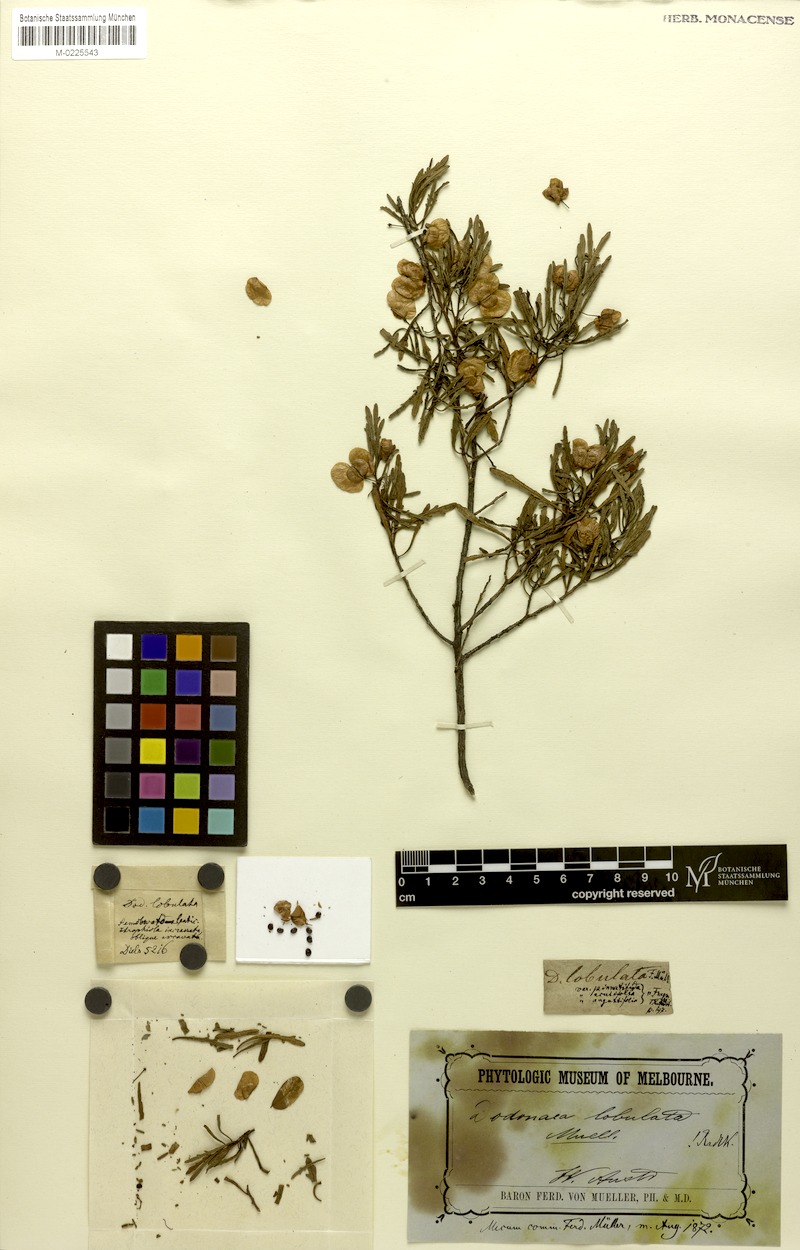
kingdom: Plantae
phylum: Tracheophyta
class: Magnoliopsida
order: Sapindales
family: Sapindaceae
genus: Dodonaea
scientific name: Dodonaea lobulata
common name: Lobe-leaf hopbush
